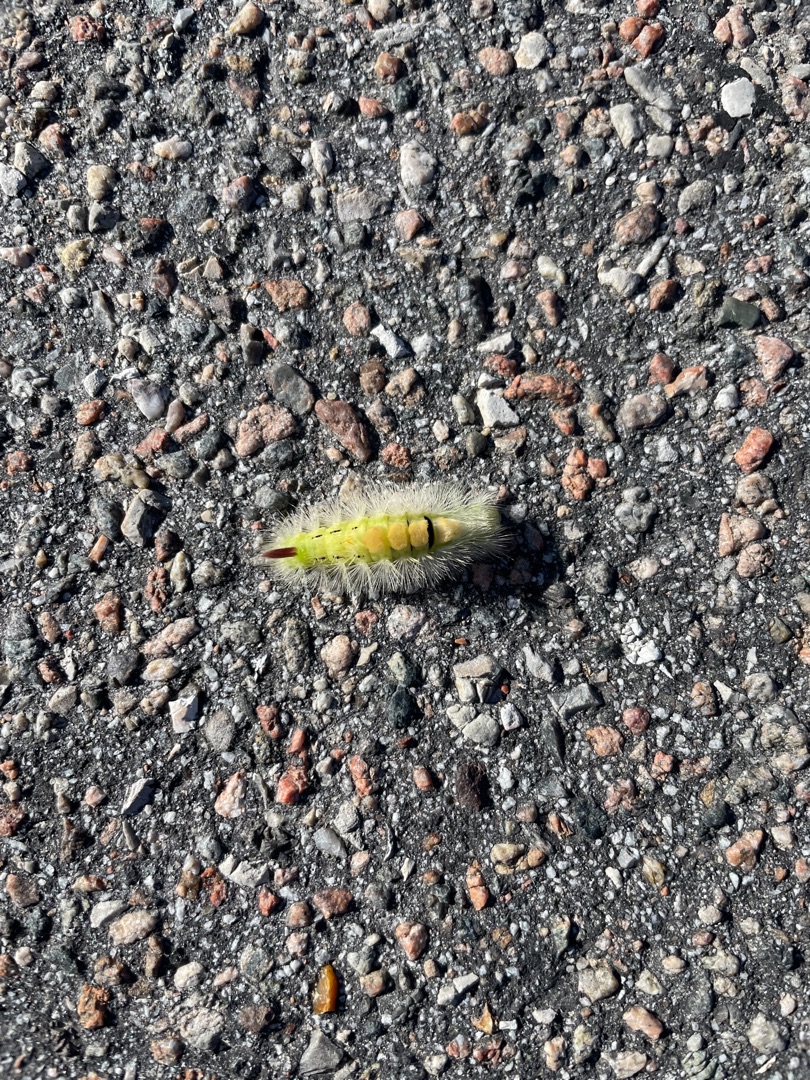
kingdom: Animalia
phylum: Arthropoda
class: Insecta
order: Lepidoptera
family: Erebidae
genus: Calliteara
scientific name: Calliteara pudibunda
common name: Bøgenonne
